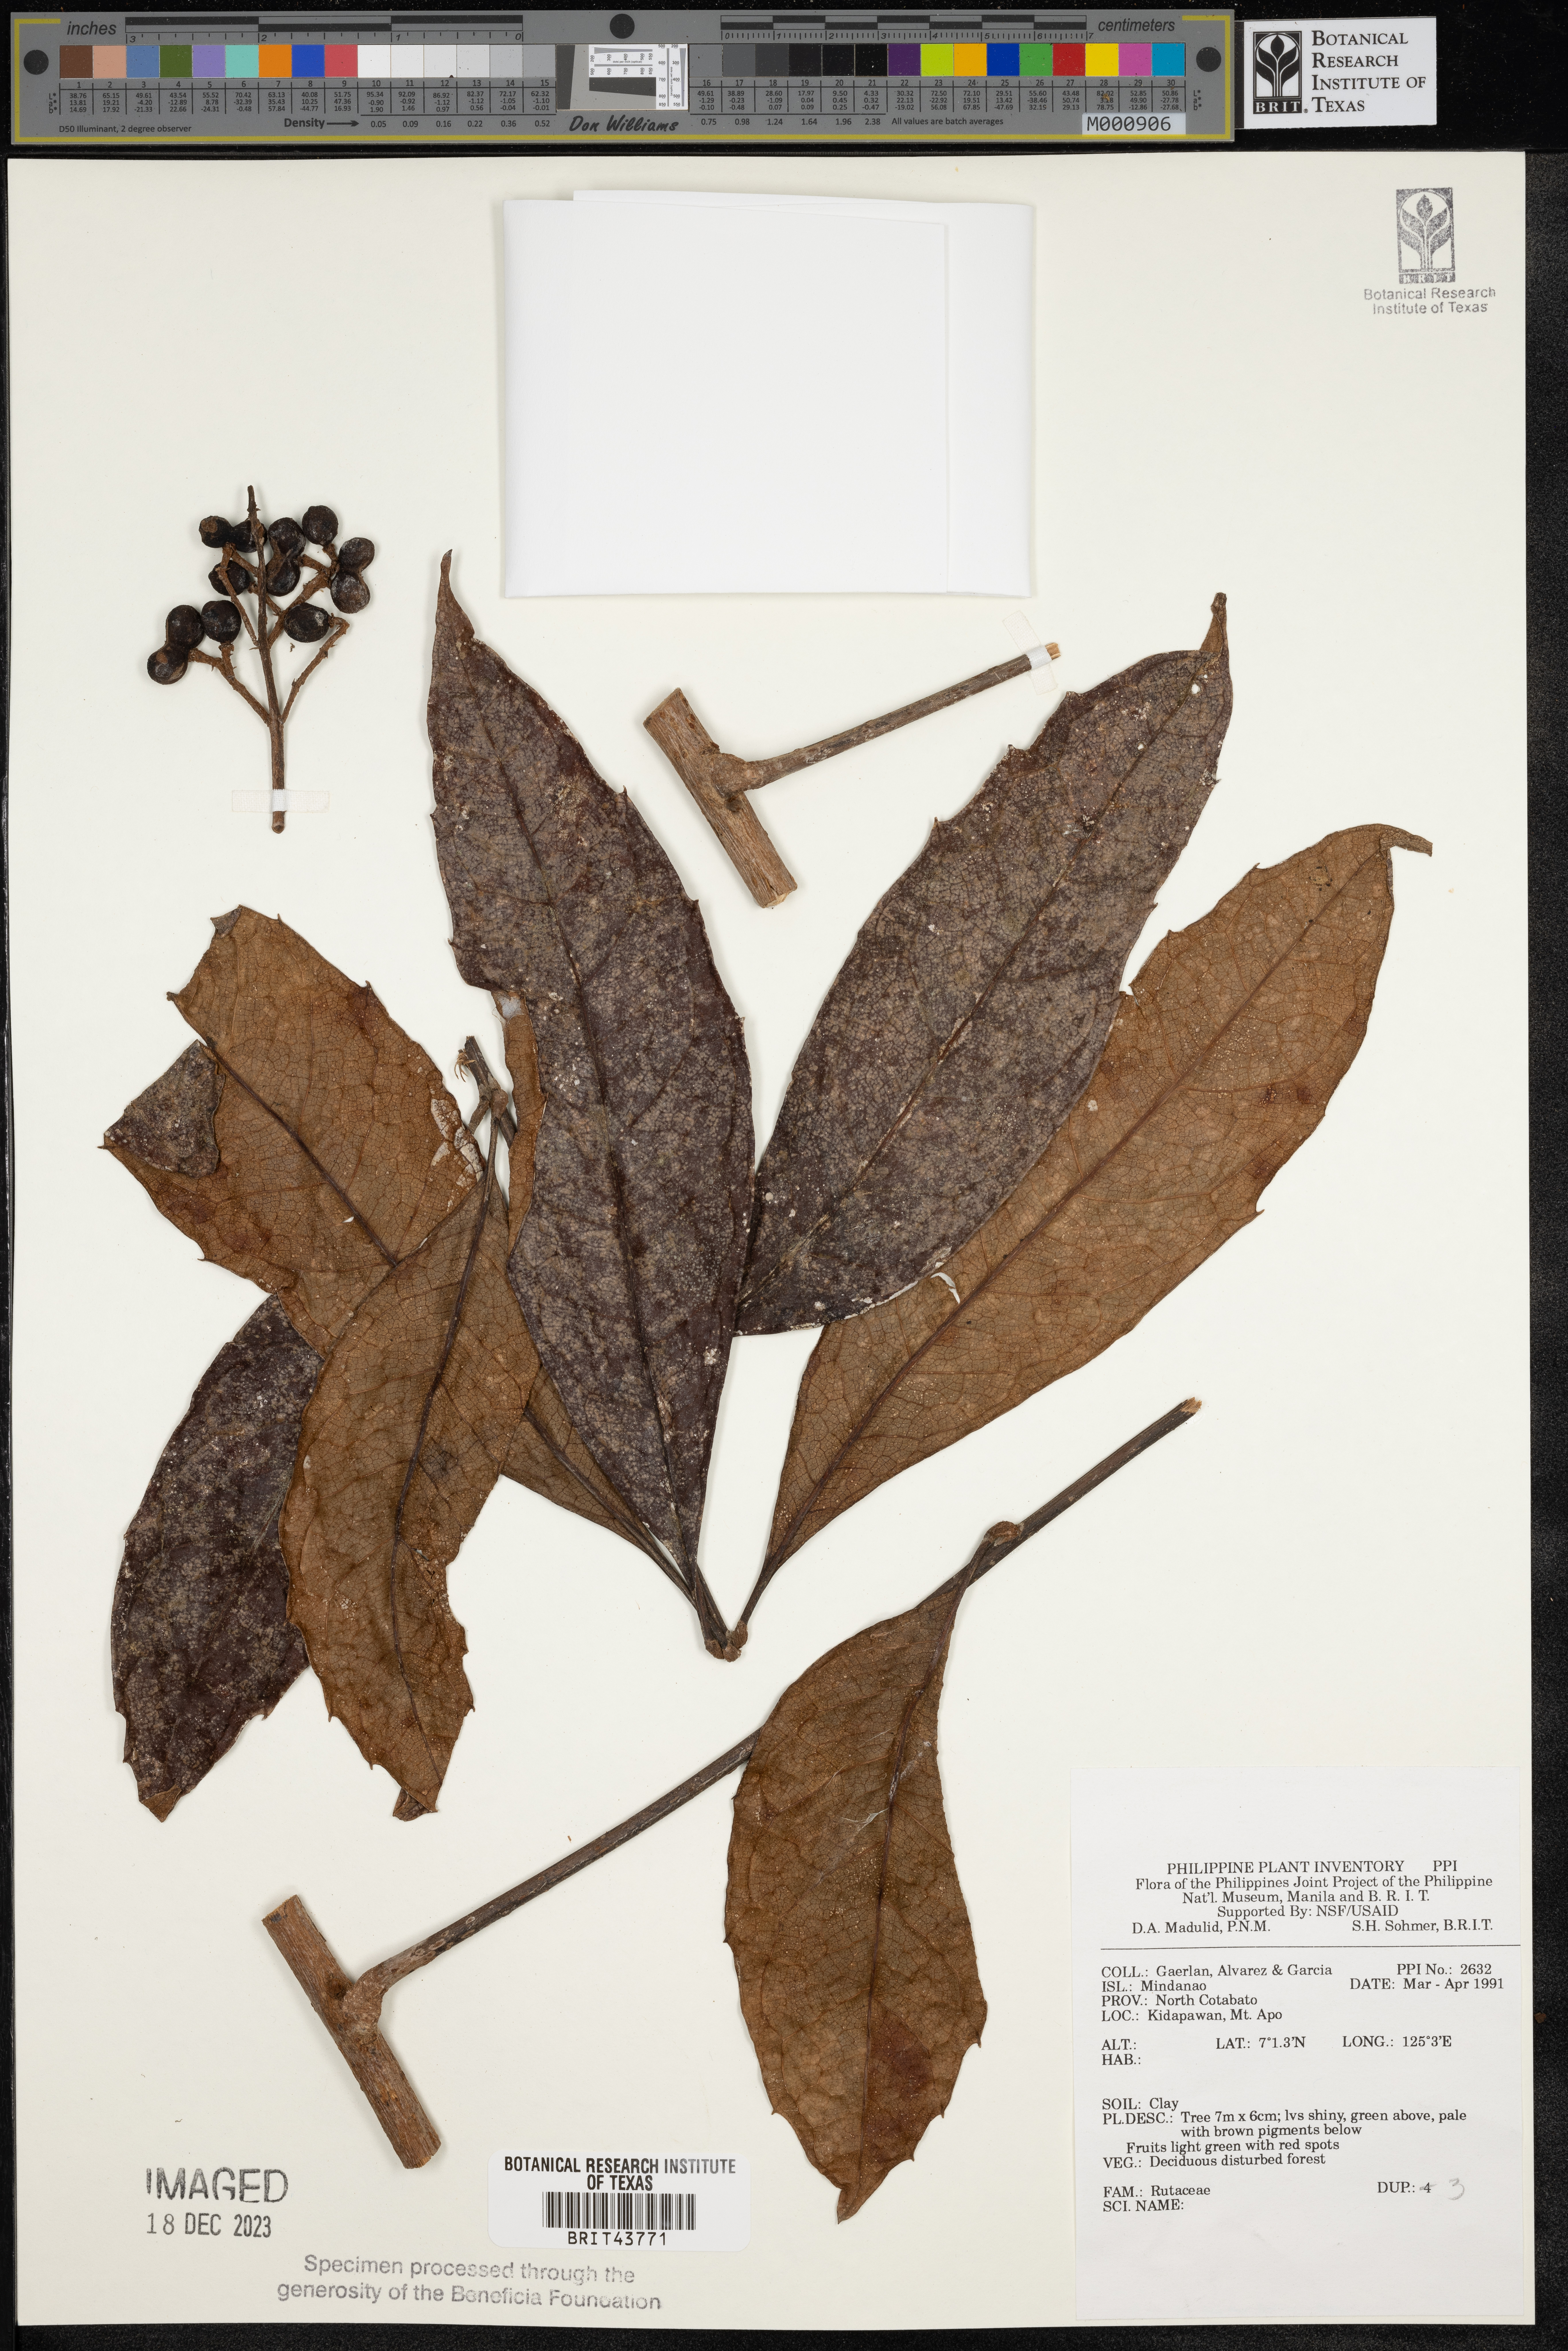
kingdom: Plantae
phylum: Tracheophyta
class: Magnoliopsida
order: Sapindales
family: Rutaceae
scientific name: Rutaceae
